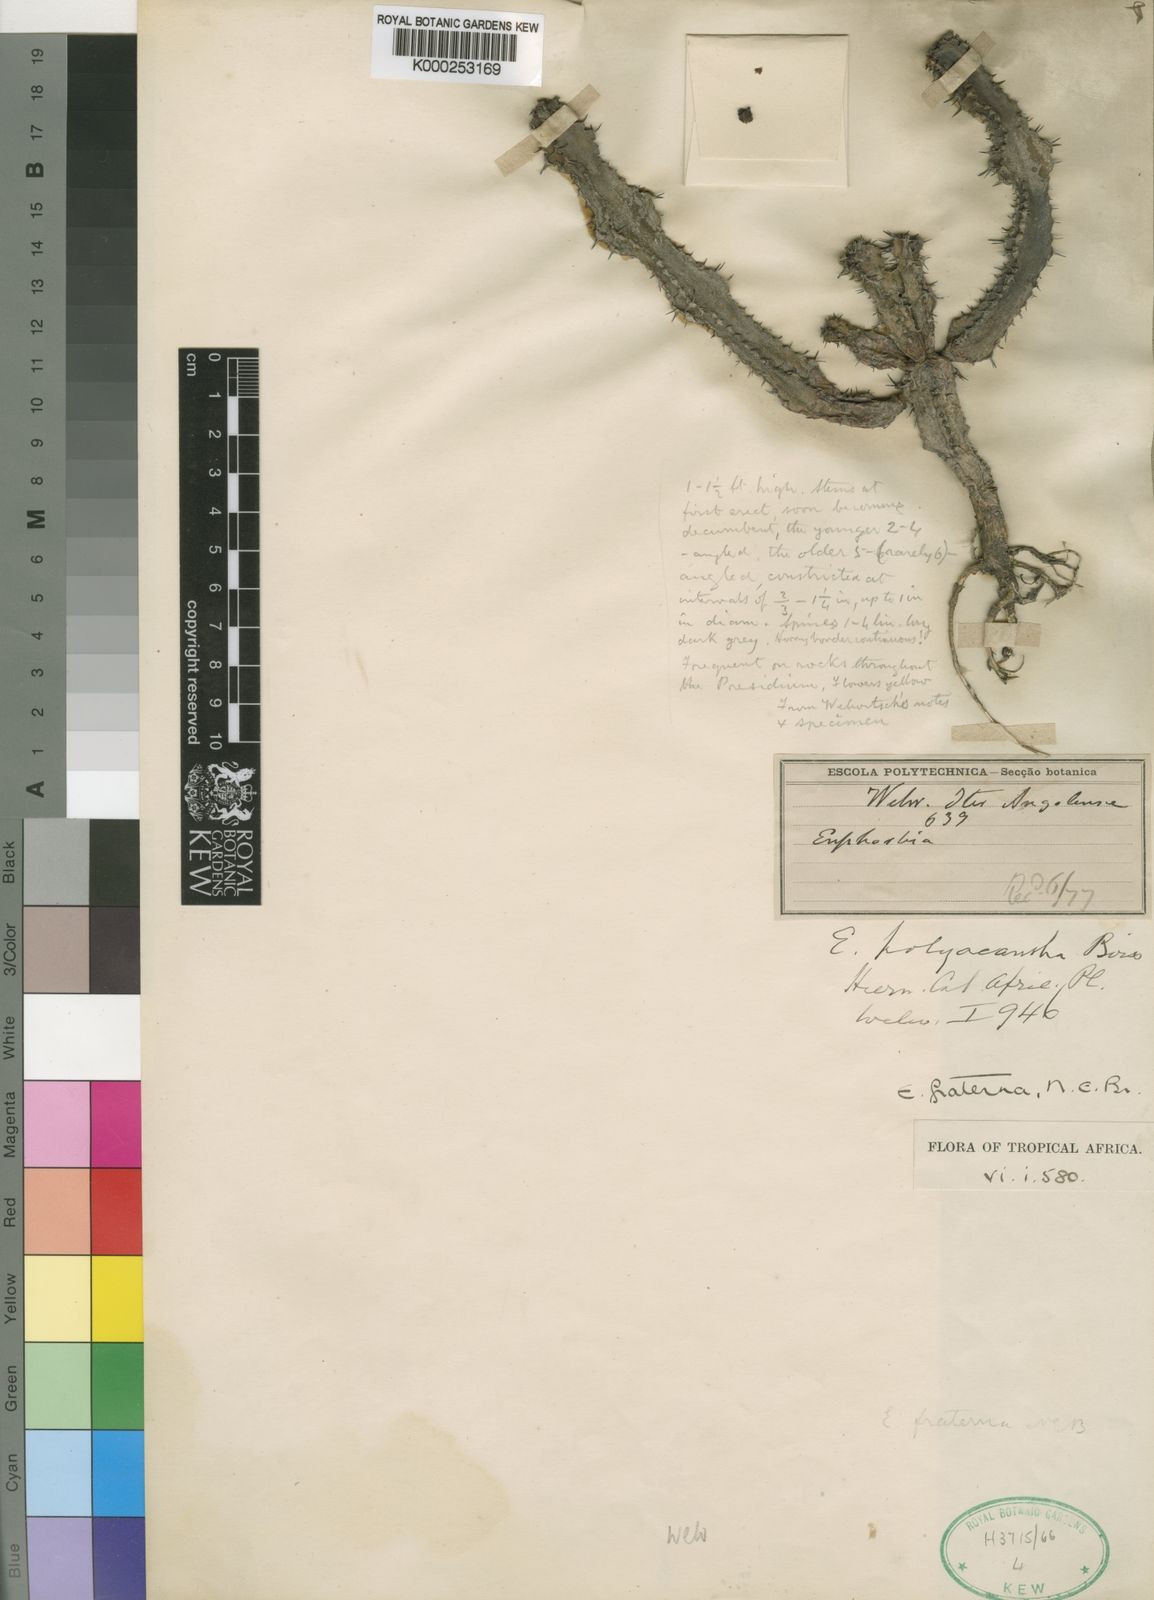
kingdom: Plantae
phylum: Tracheophyta
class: Magnoliopsida
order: Malpighiales
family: Euphorbiaceae
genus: Euphorbia
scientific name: Euphorbia dekindtii
